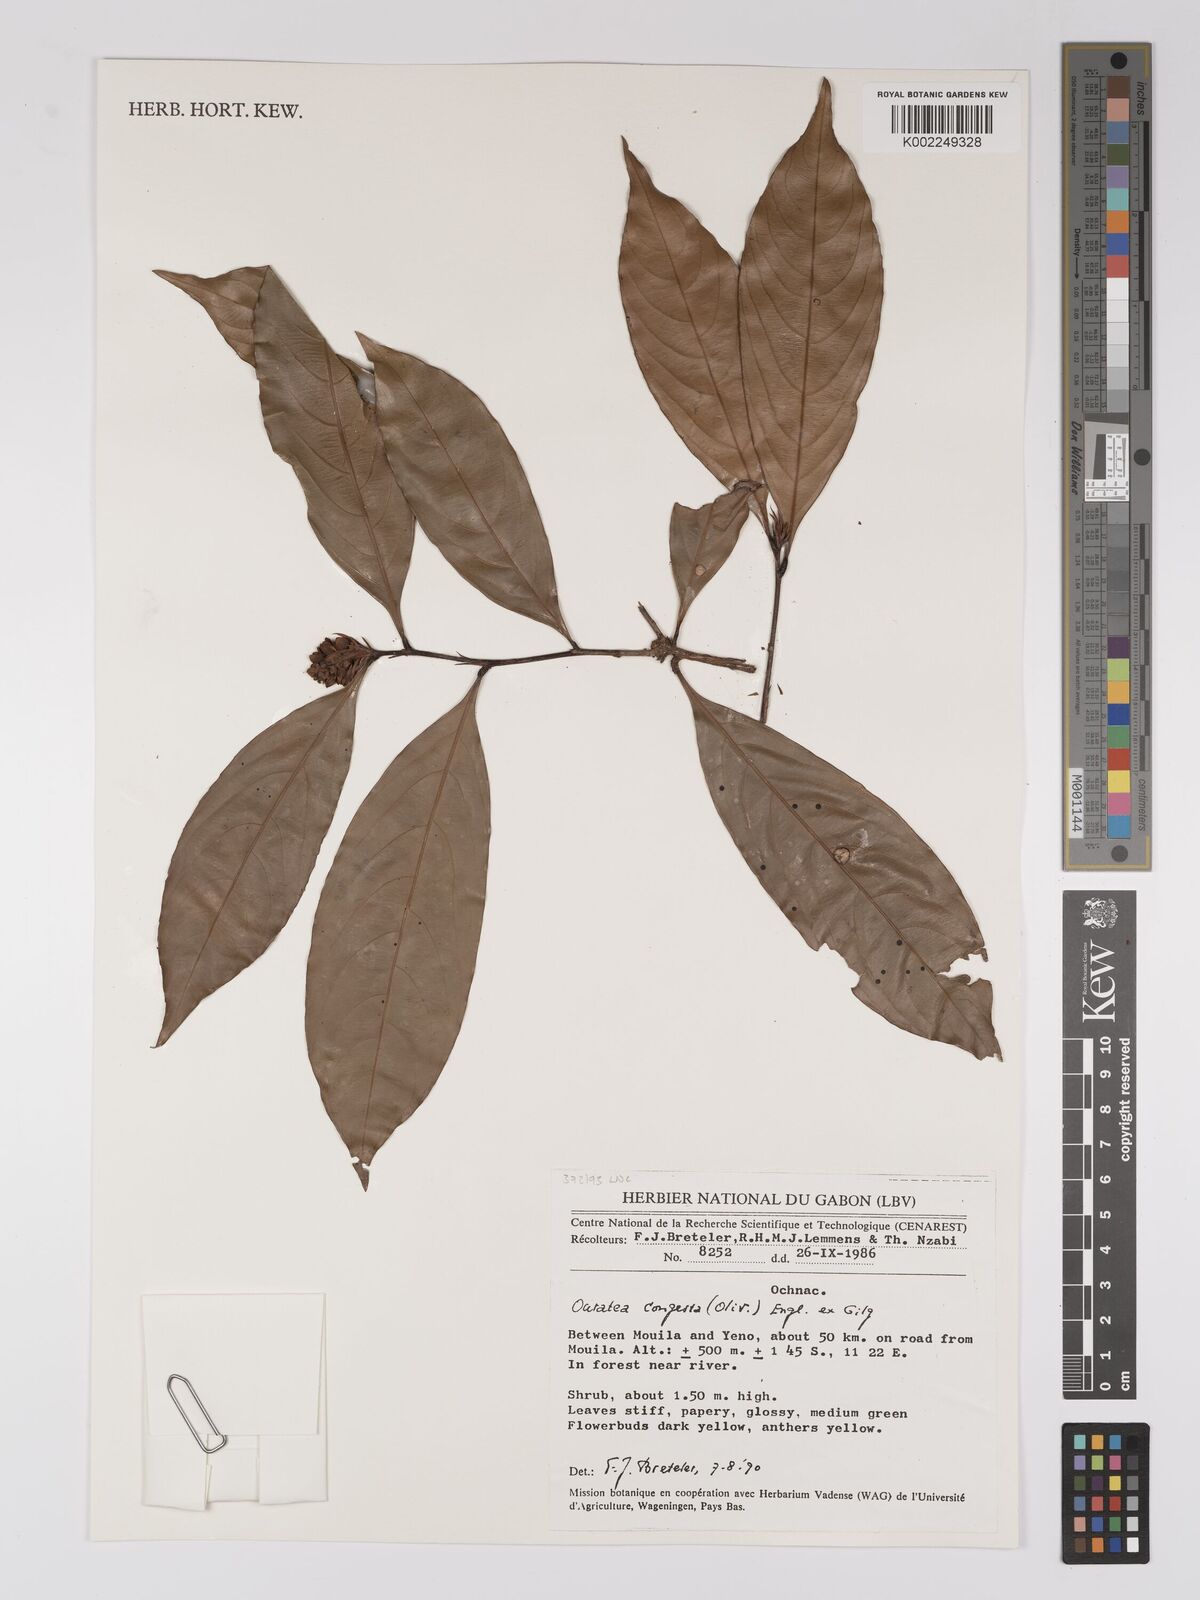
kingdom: Plantae
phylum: Tracheophyta
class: Magnoliopsida
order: Malpighiales
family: Ochnaceae
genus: Campylospermum
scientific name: Campylospermum congestum
